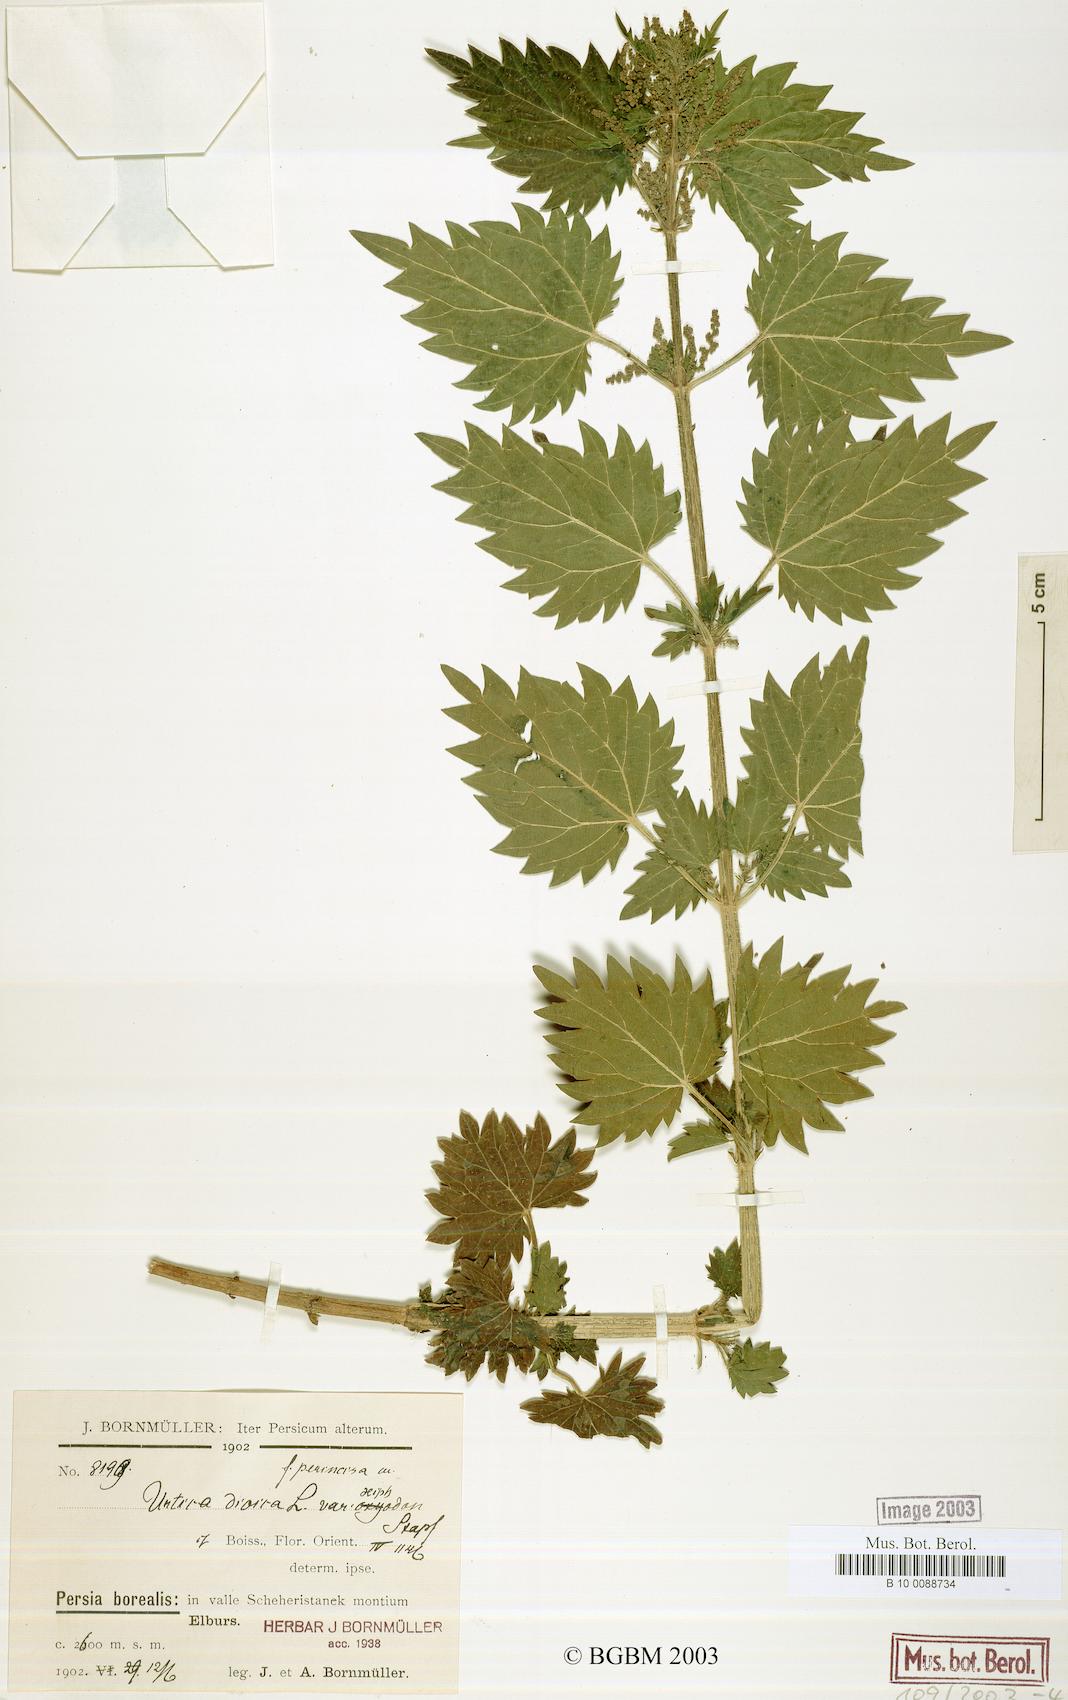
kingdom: Plantae
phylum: Tracheophyta
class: Magnoliopsida
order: Rosales
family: Urticaceae
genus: Urtica
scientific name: Urtica dioica
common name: Common nettle
